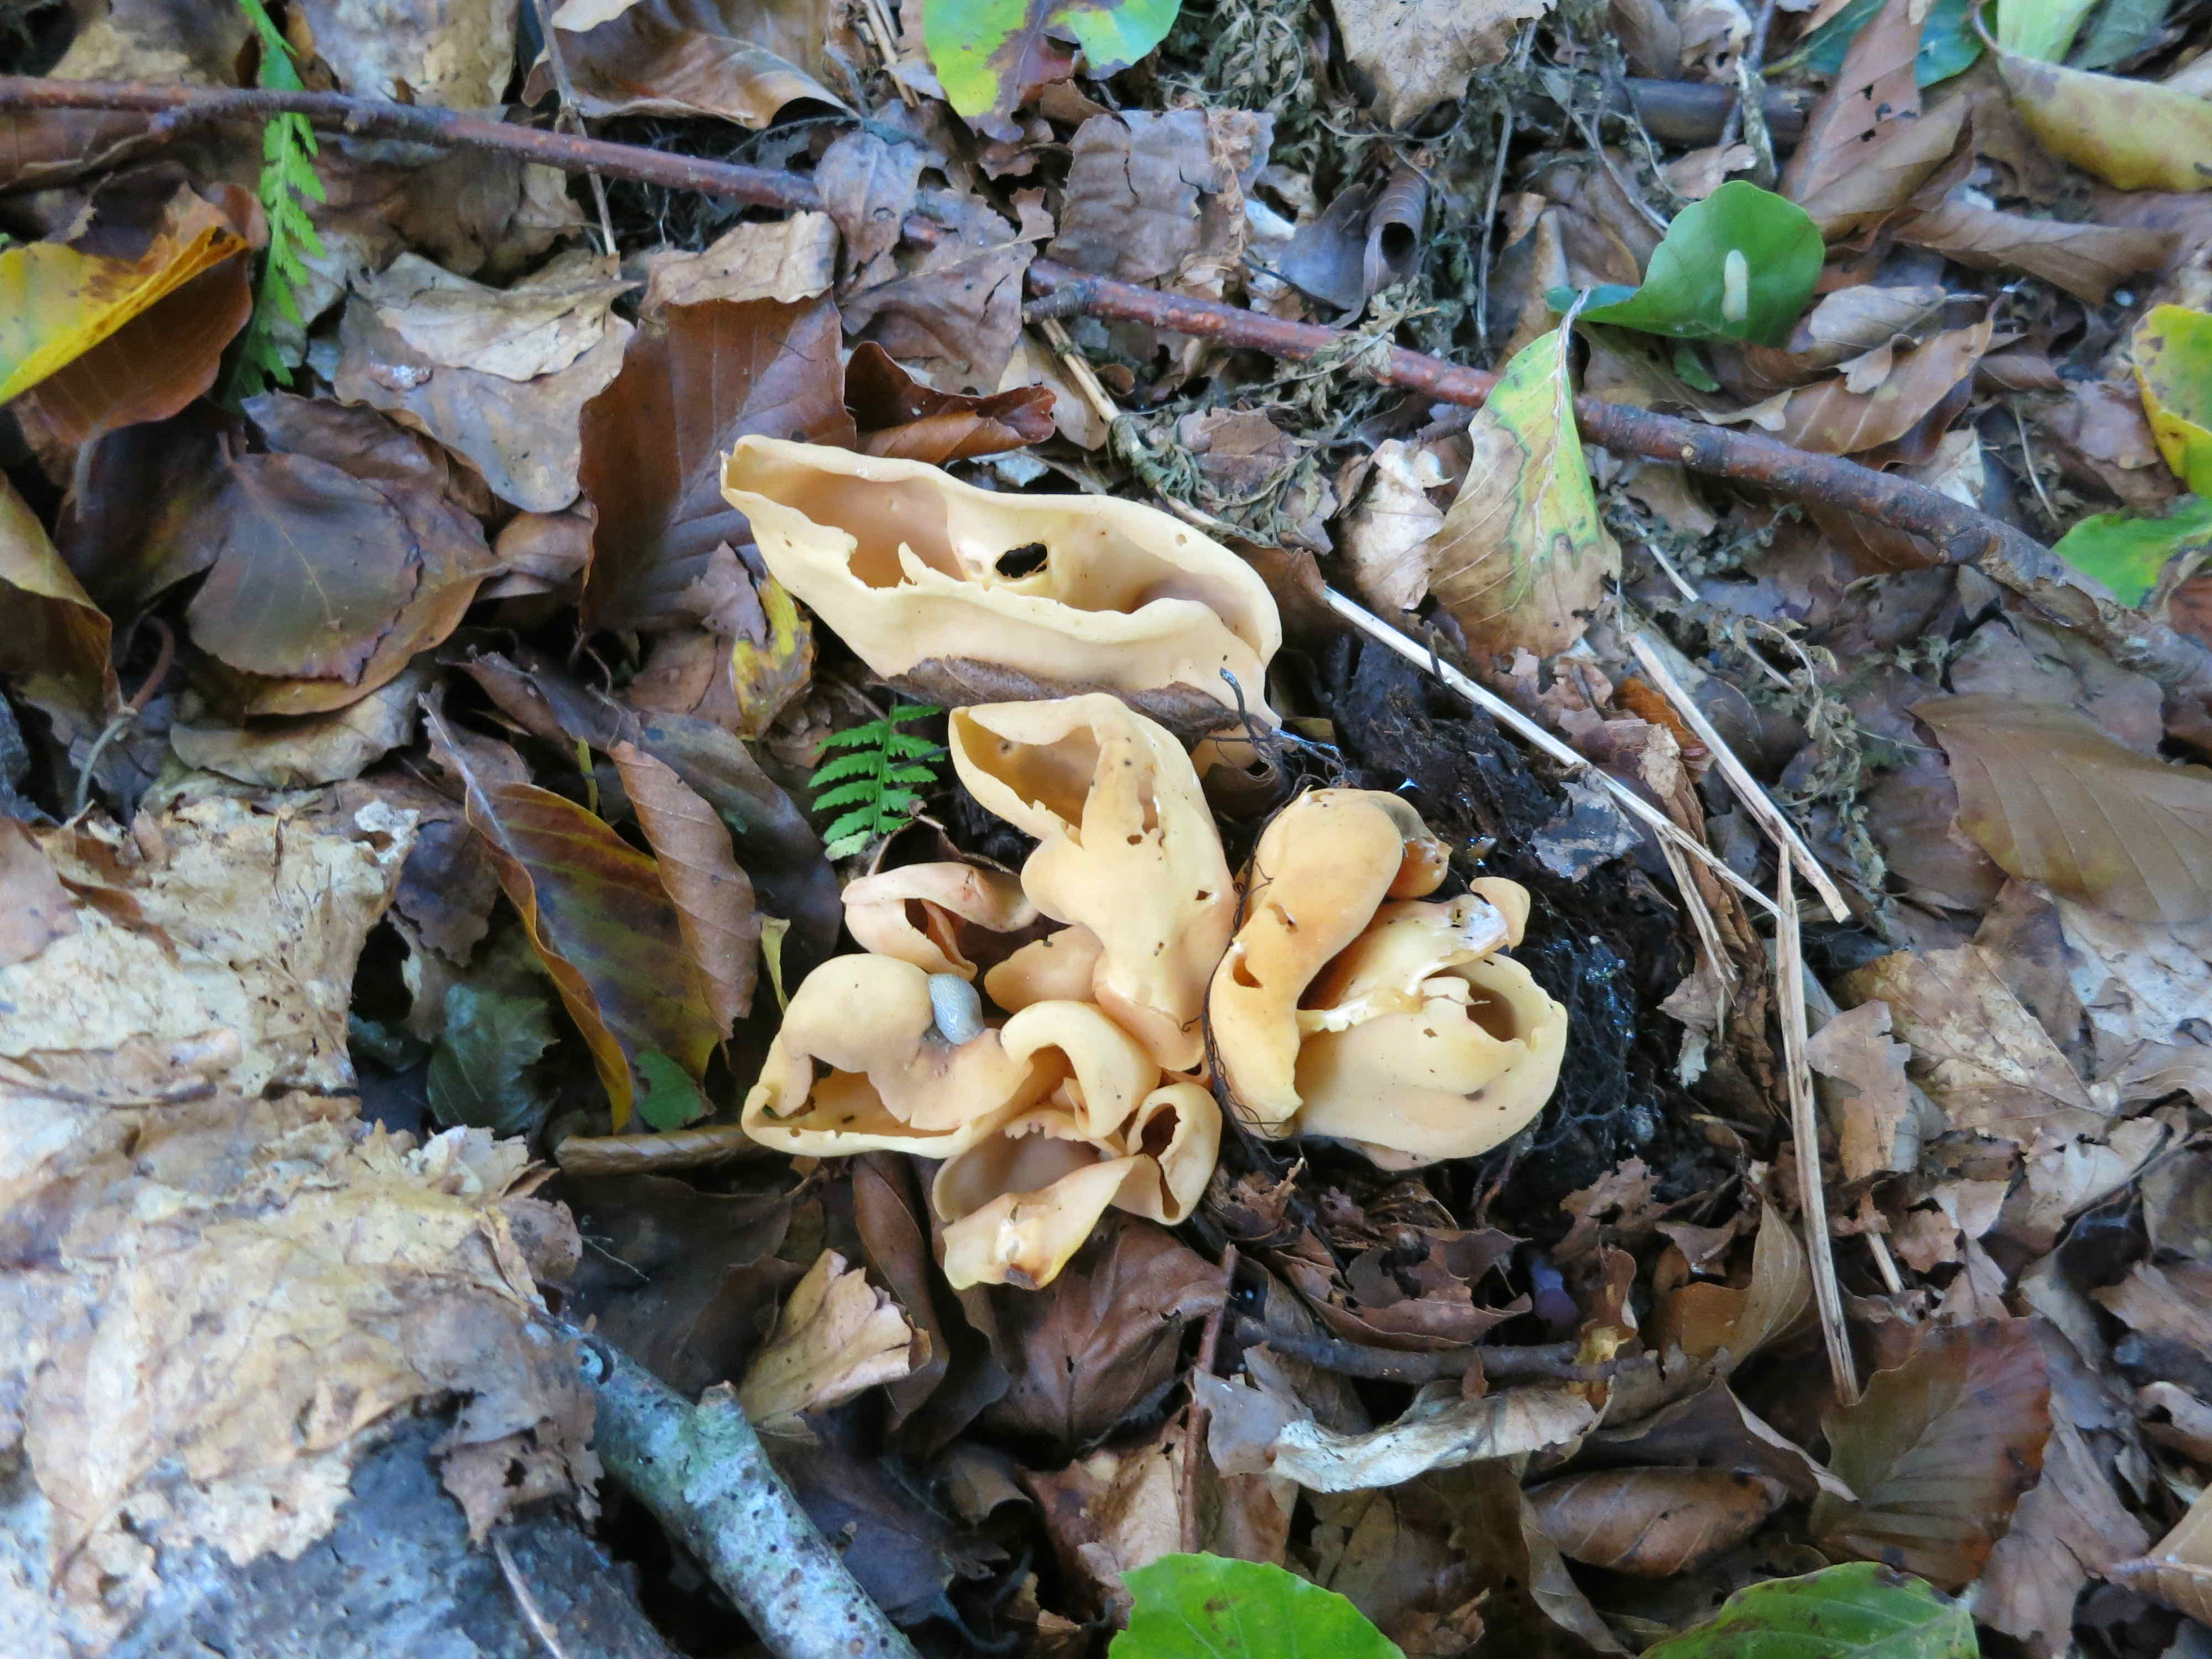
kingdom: Fungi
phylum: Ascomycota
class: Pezizomycetes
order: Pezizales
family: Otideaceae
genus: Otidea
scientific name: Otidea onotica
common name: æsel-ørebæger
